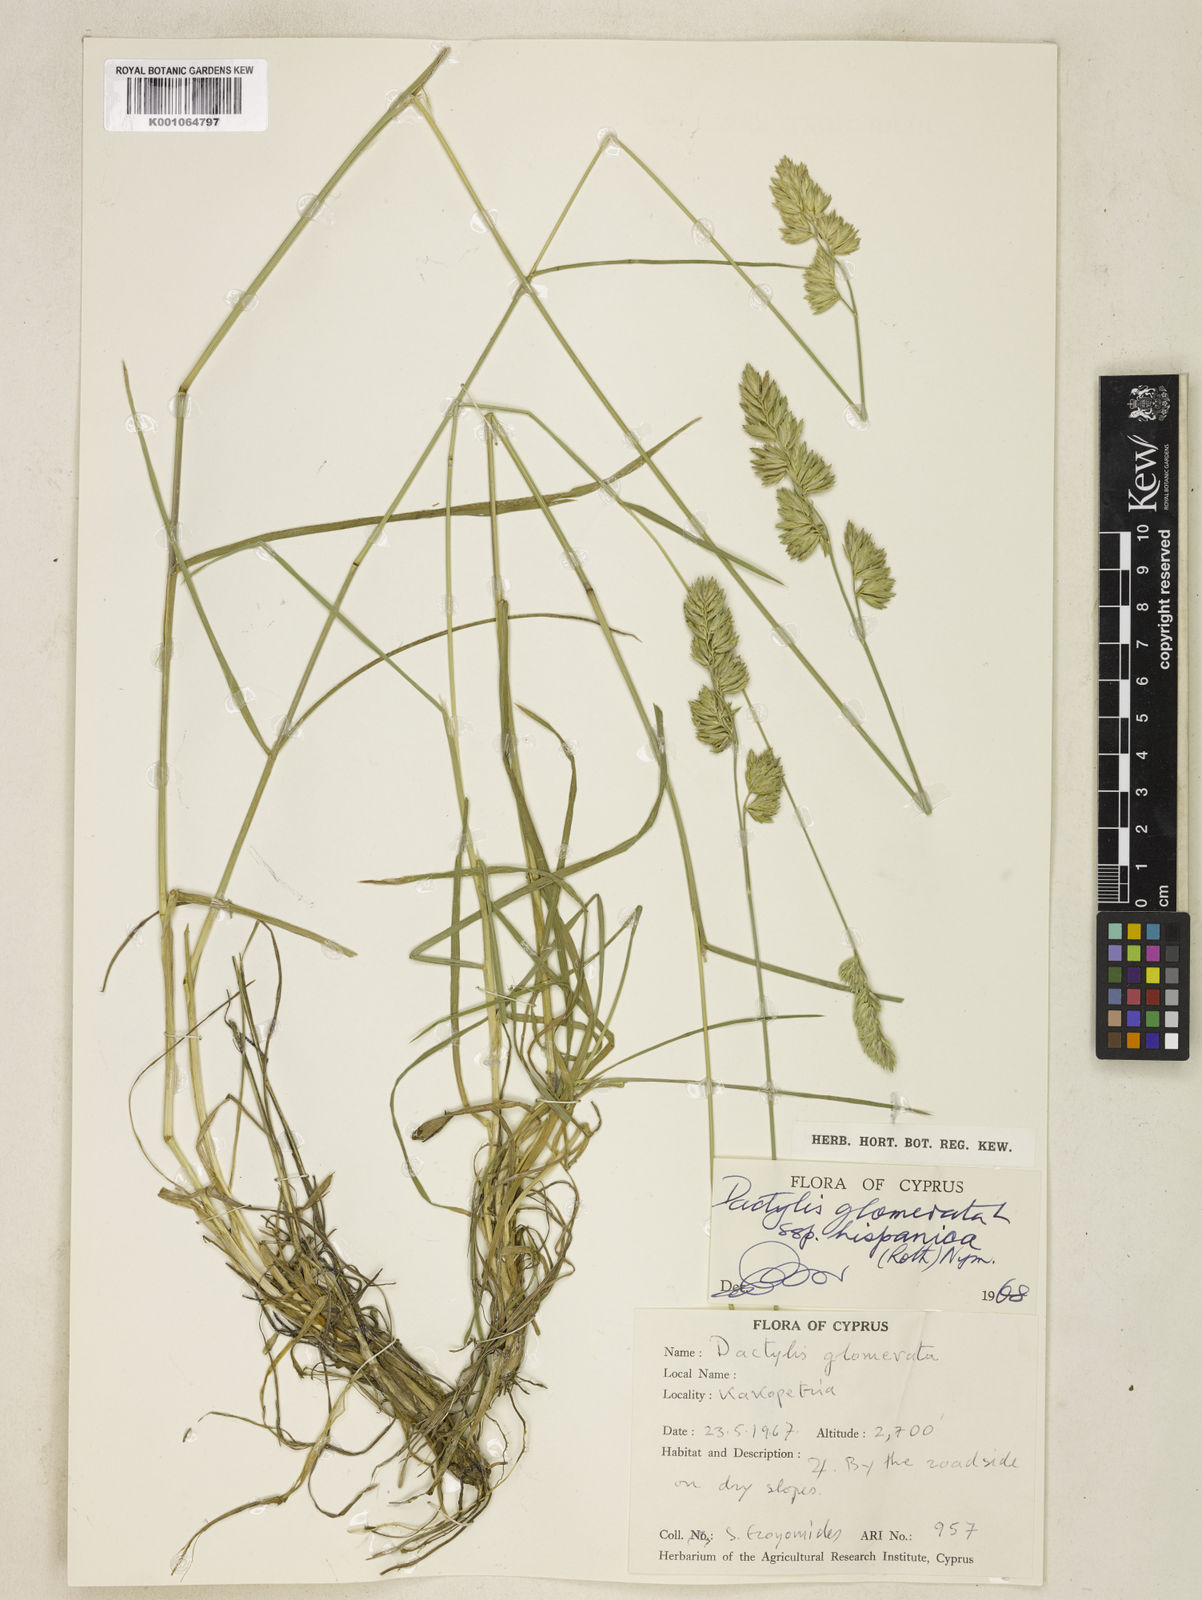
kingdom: Plantae
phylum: Tracheophyta
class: Liliopsida
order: Poales
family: Poaceae
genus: Dactylis
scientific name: Dactylis glomerata
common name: Orchardgrass
